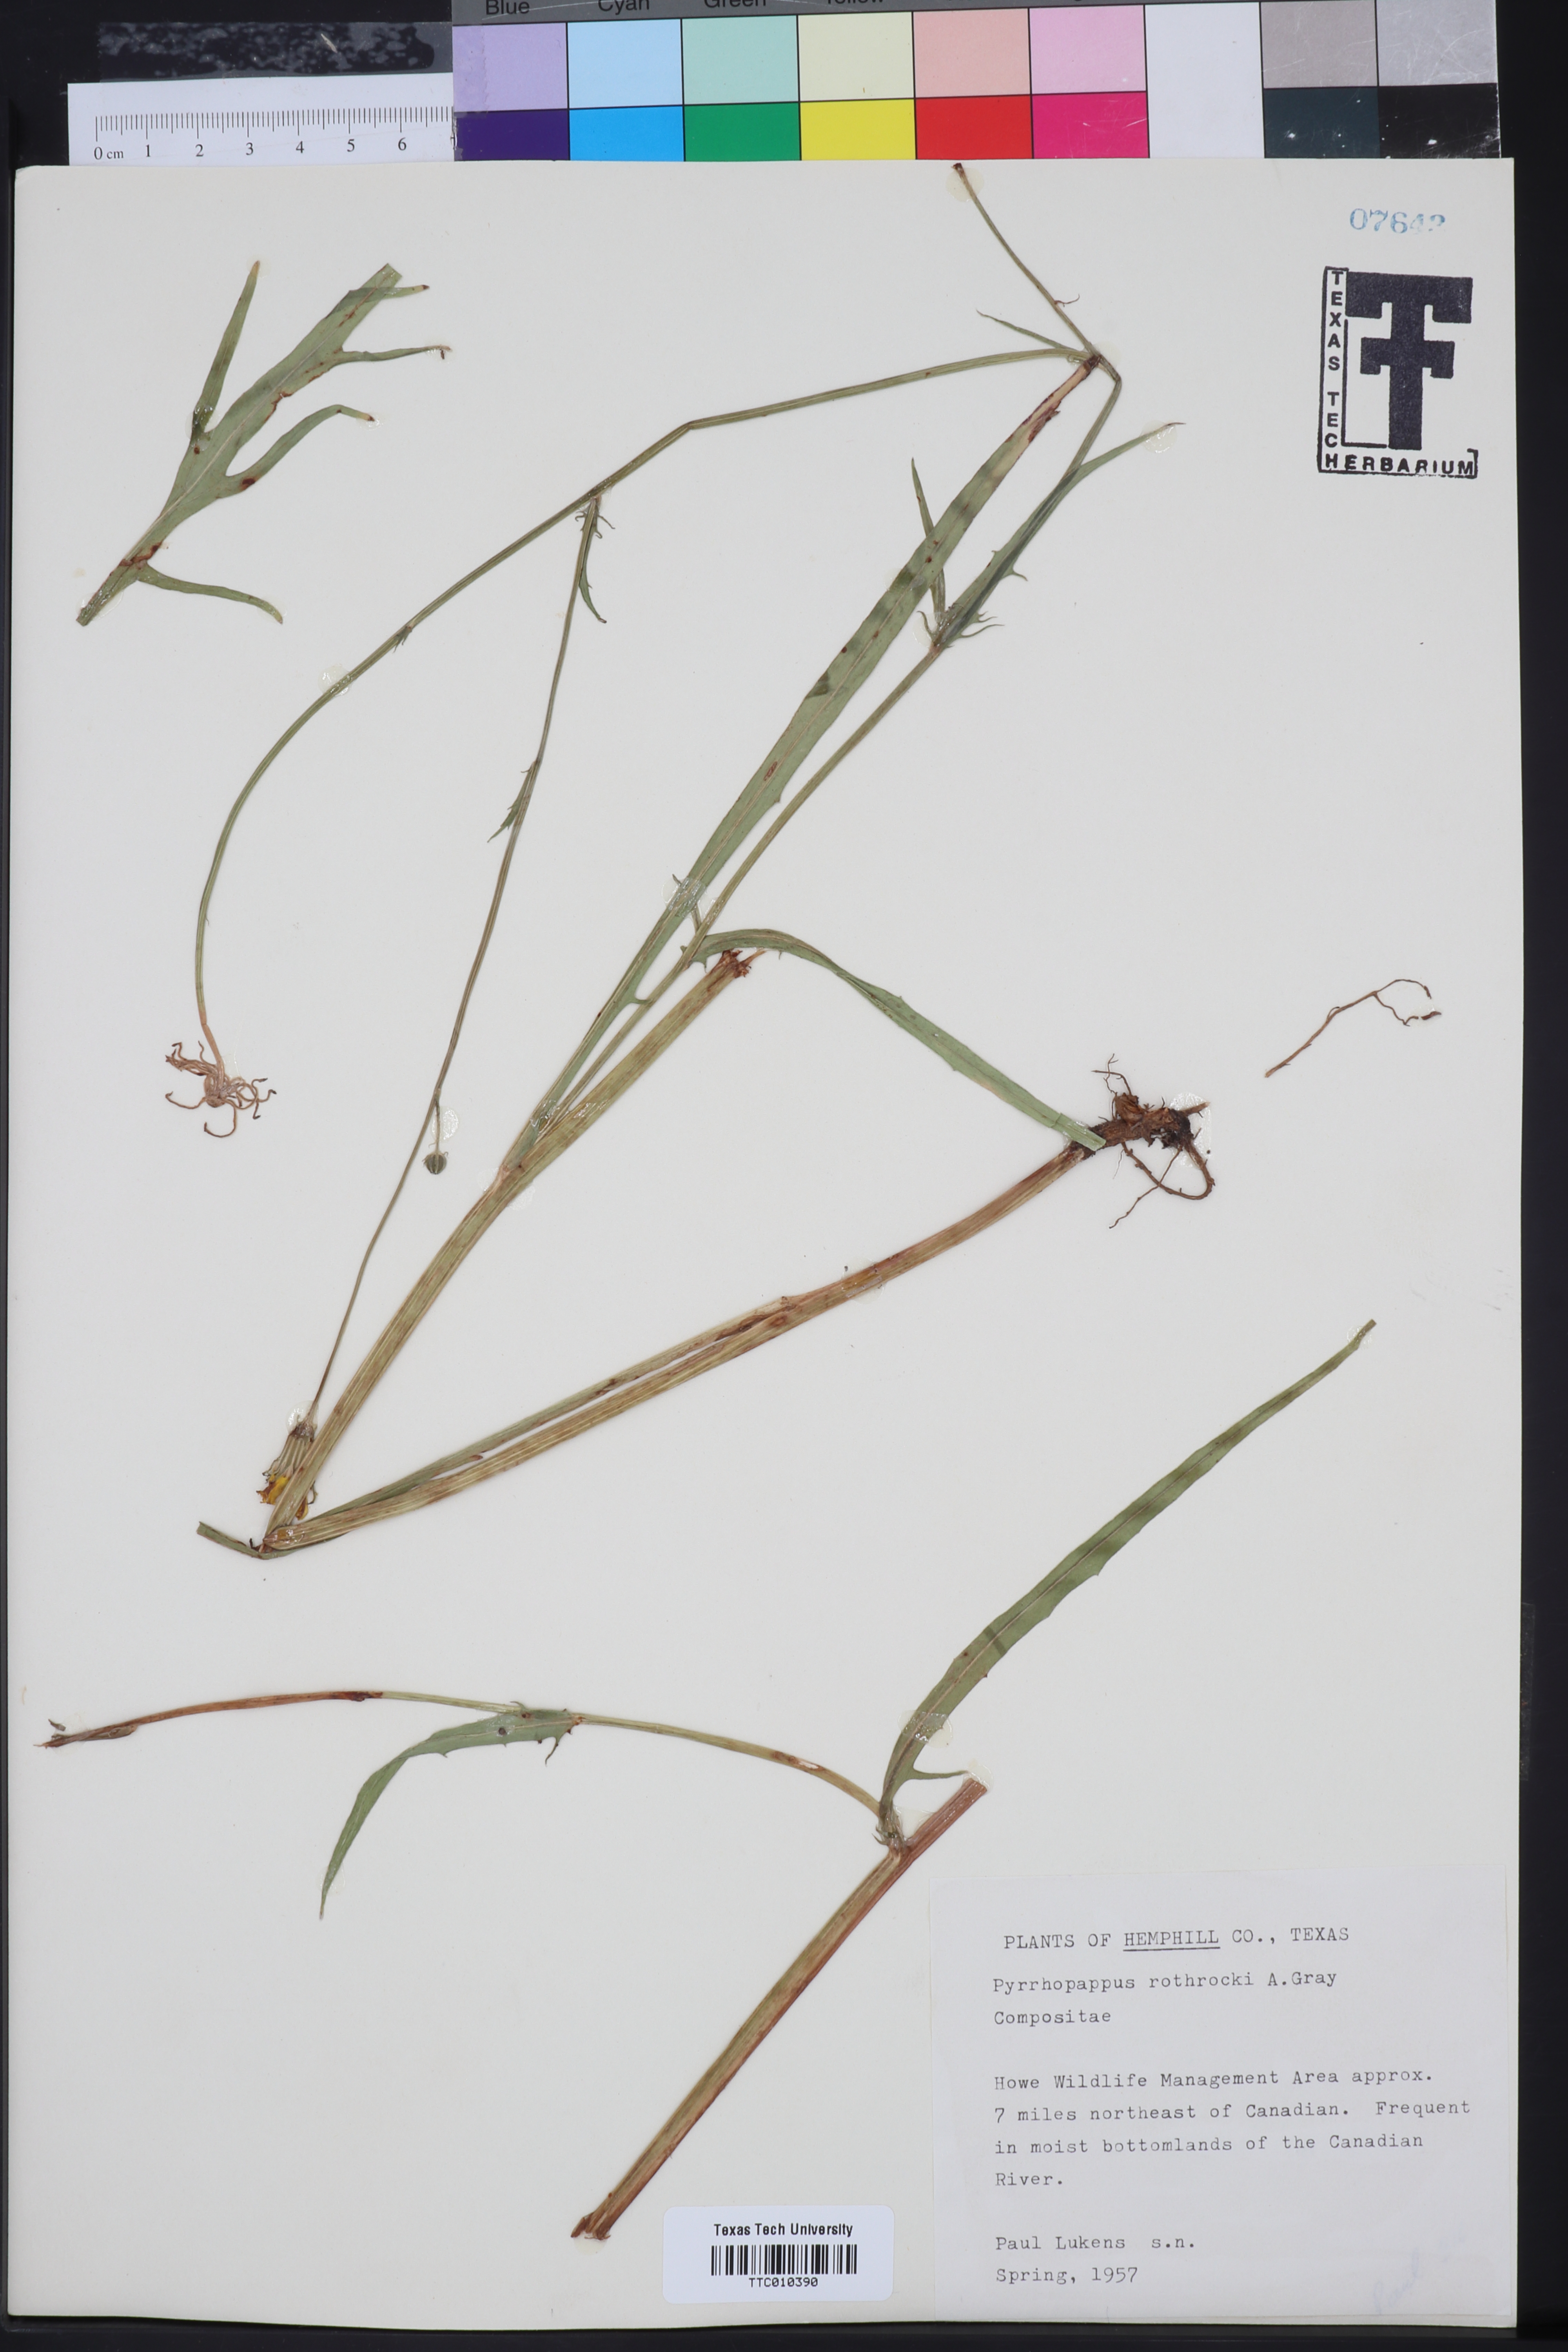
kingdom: Plantae
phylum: Tracheophyta
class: Magnoliopsida
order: Asterales
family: Asteraceae
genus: Pyrrhopappus
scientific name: Pyrrhopappus rothrockii
